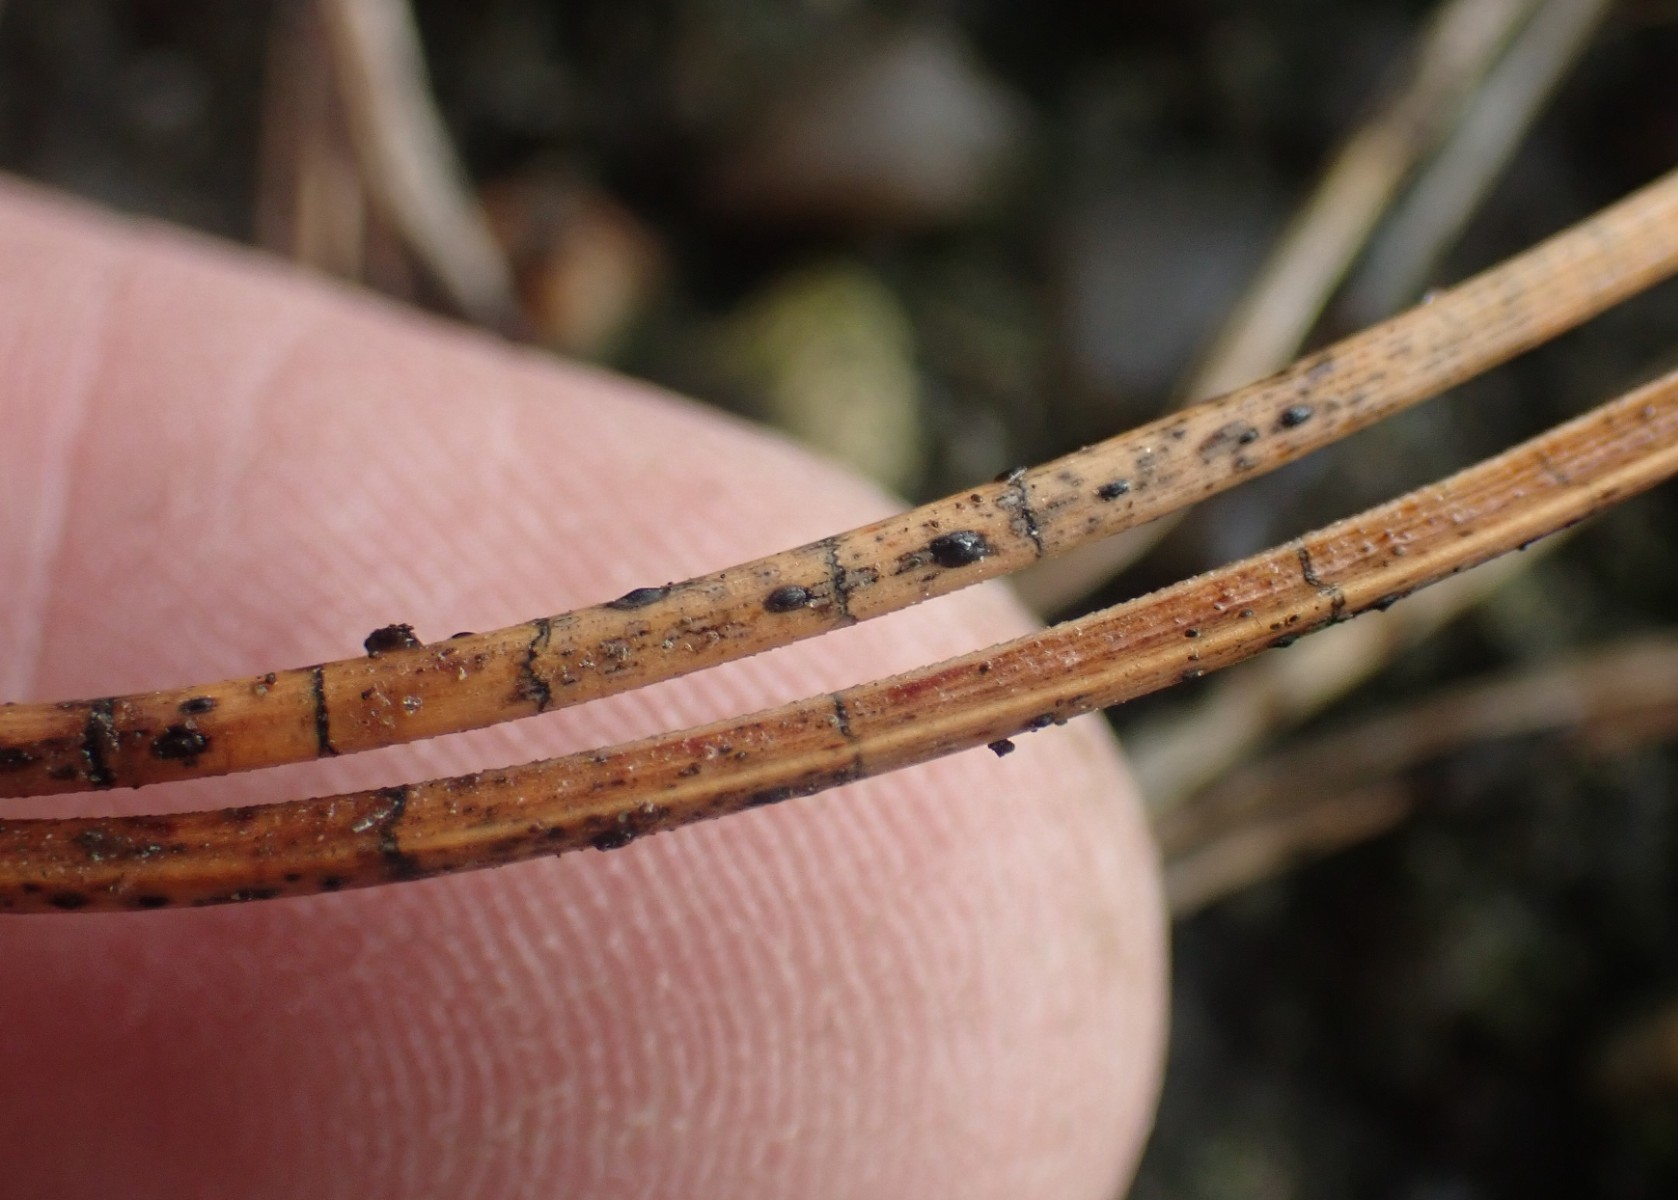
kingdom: Fungi
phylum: Ascomycota
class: Leotiomycetes
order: Rhytismatales
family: Rhytismataceae
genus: Lophodermium
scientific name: Lophodermium pinastri
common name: fyrre-fureplet
